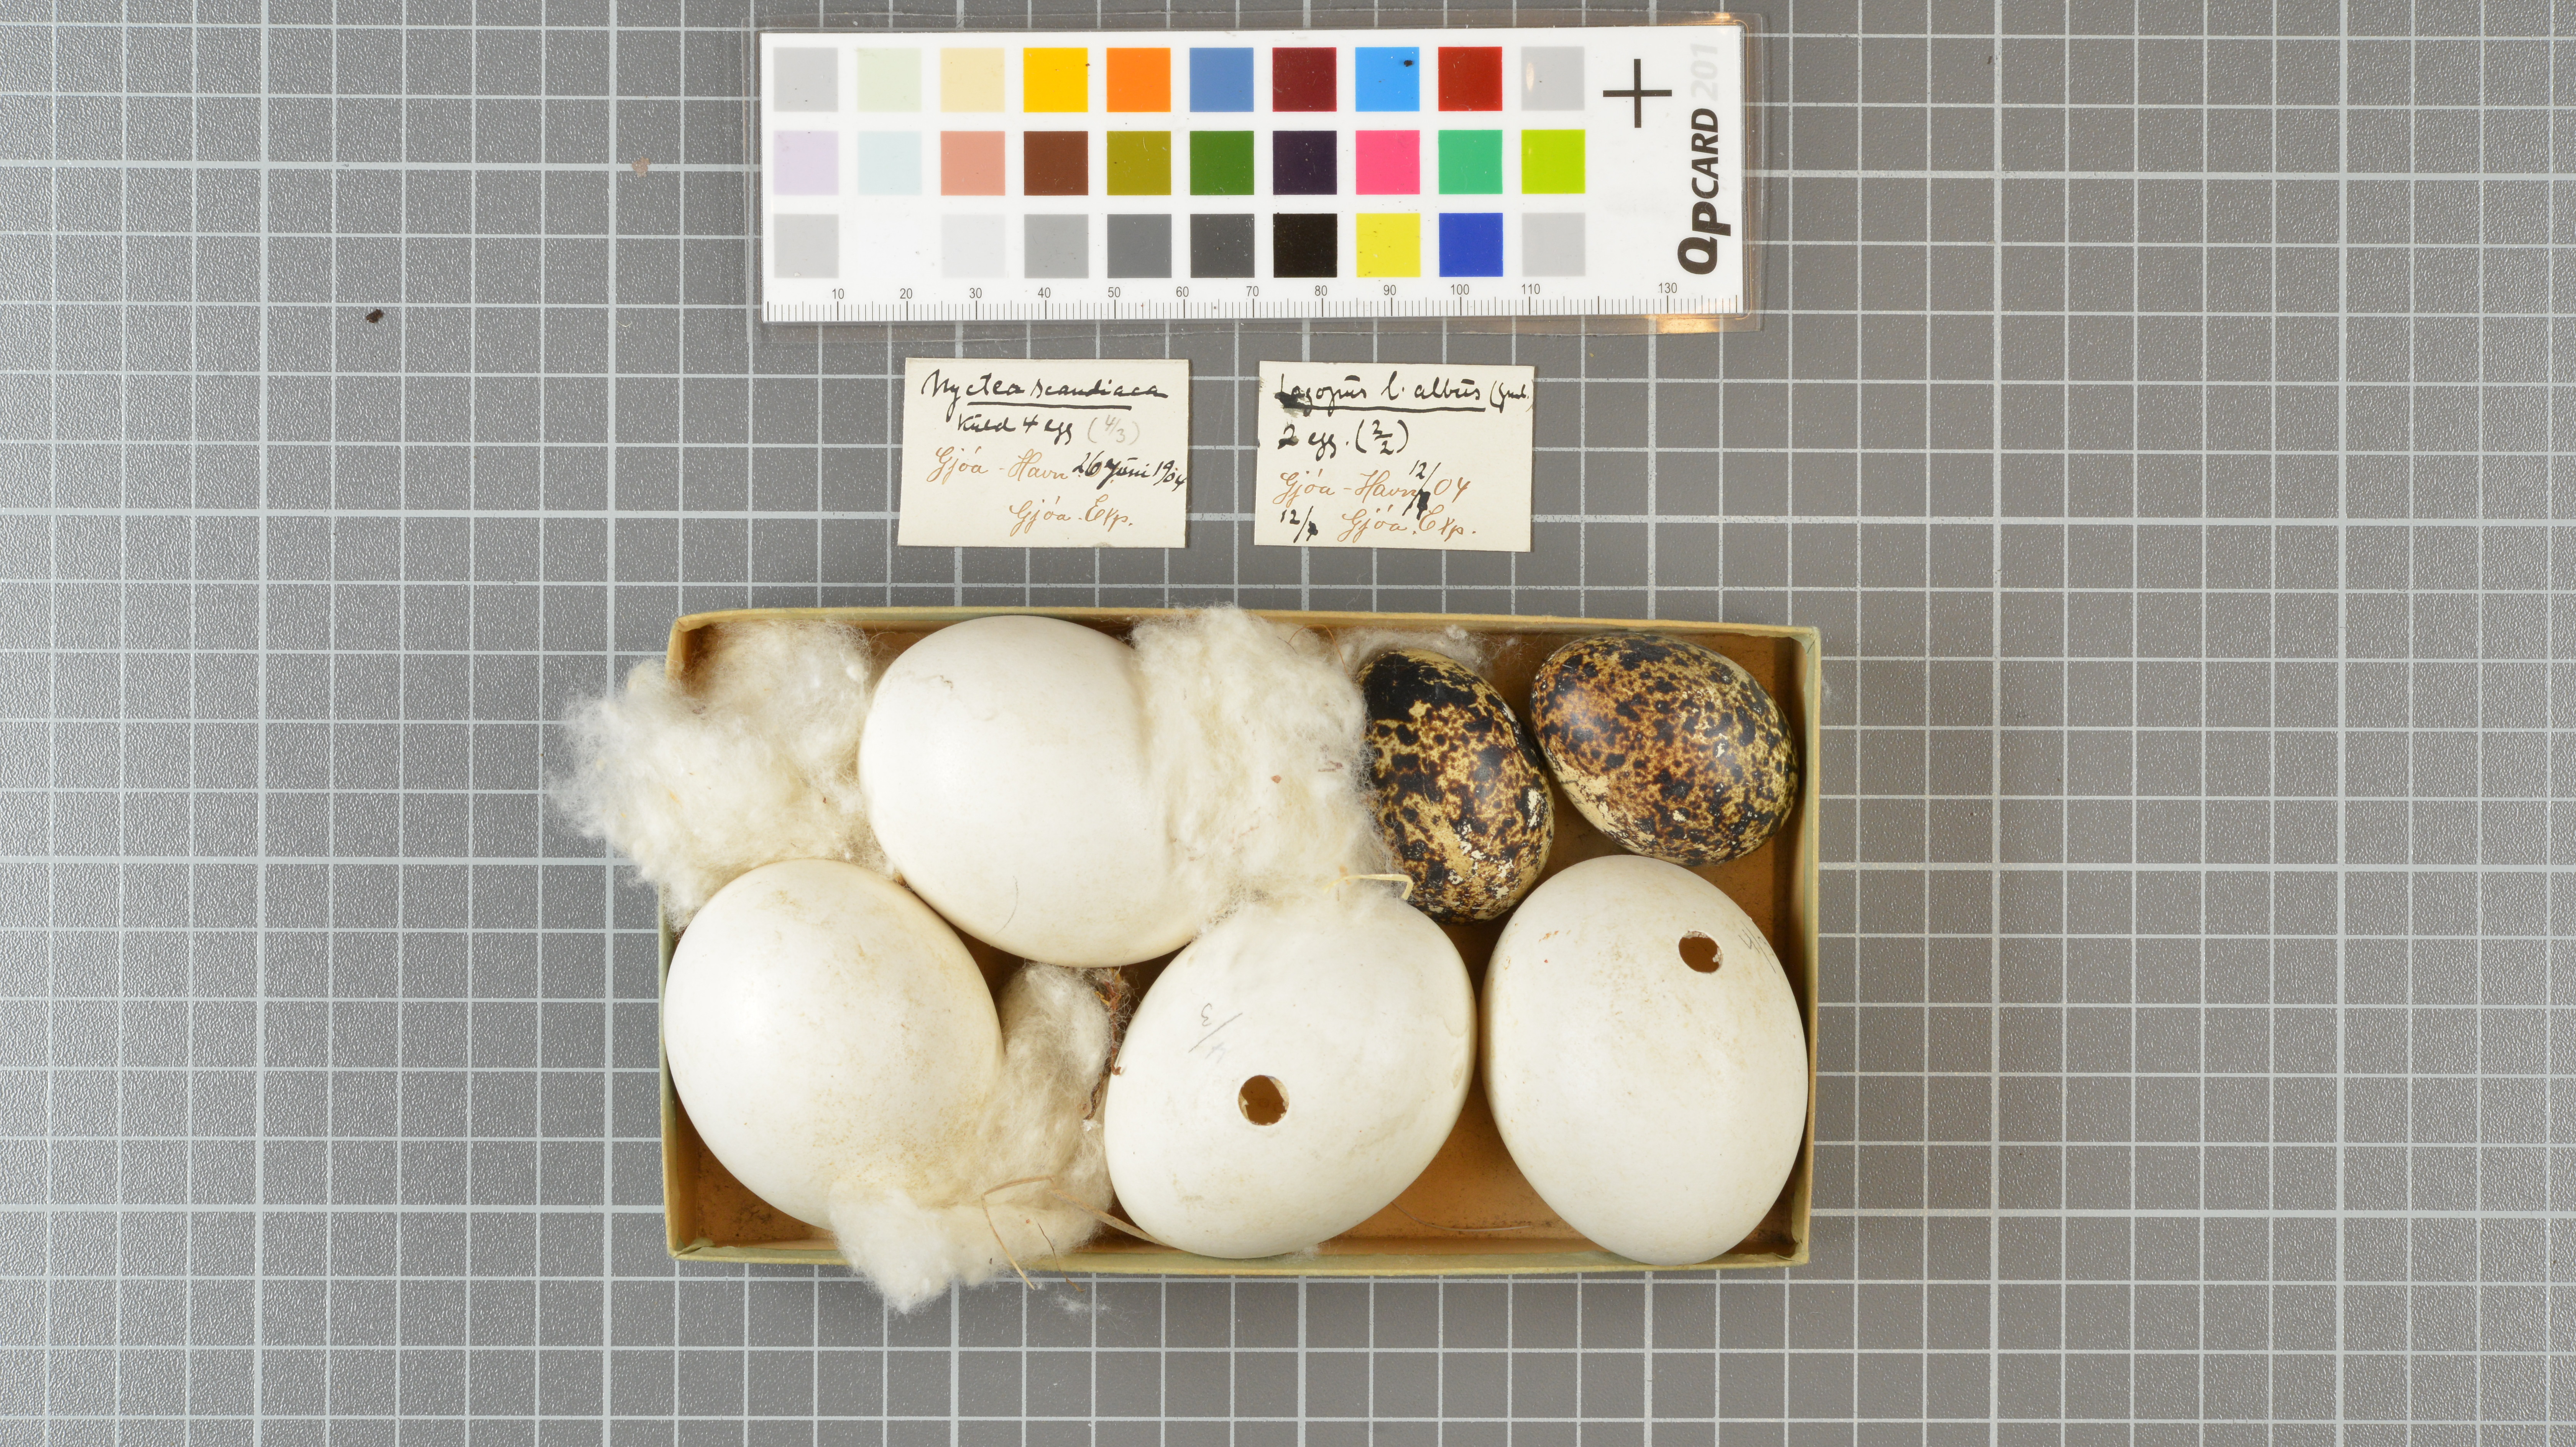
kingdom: Animalia
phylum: Chordata
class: Aves
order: Strigiformes
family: Strigidae
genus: Bubo
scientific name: Bubo scandiacus
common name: Snowy owl
